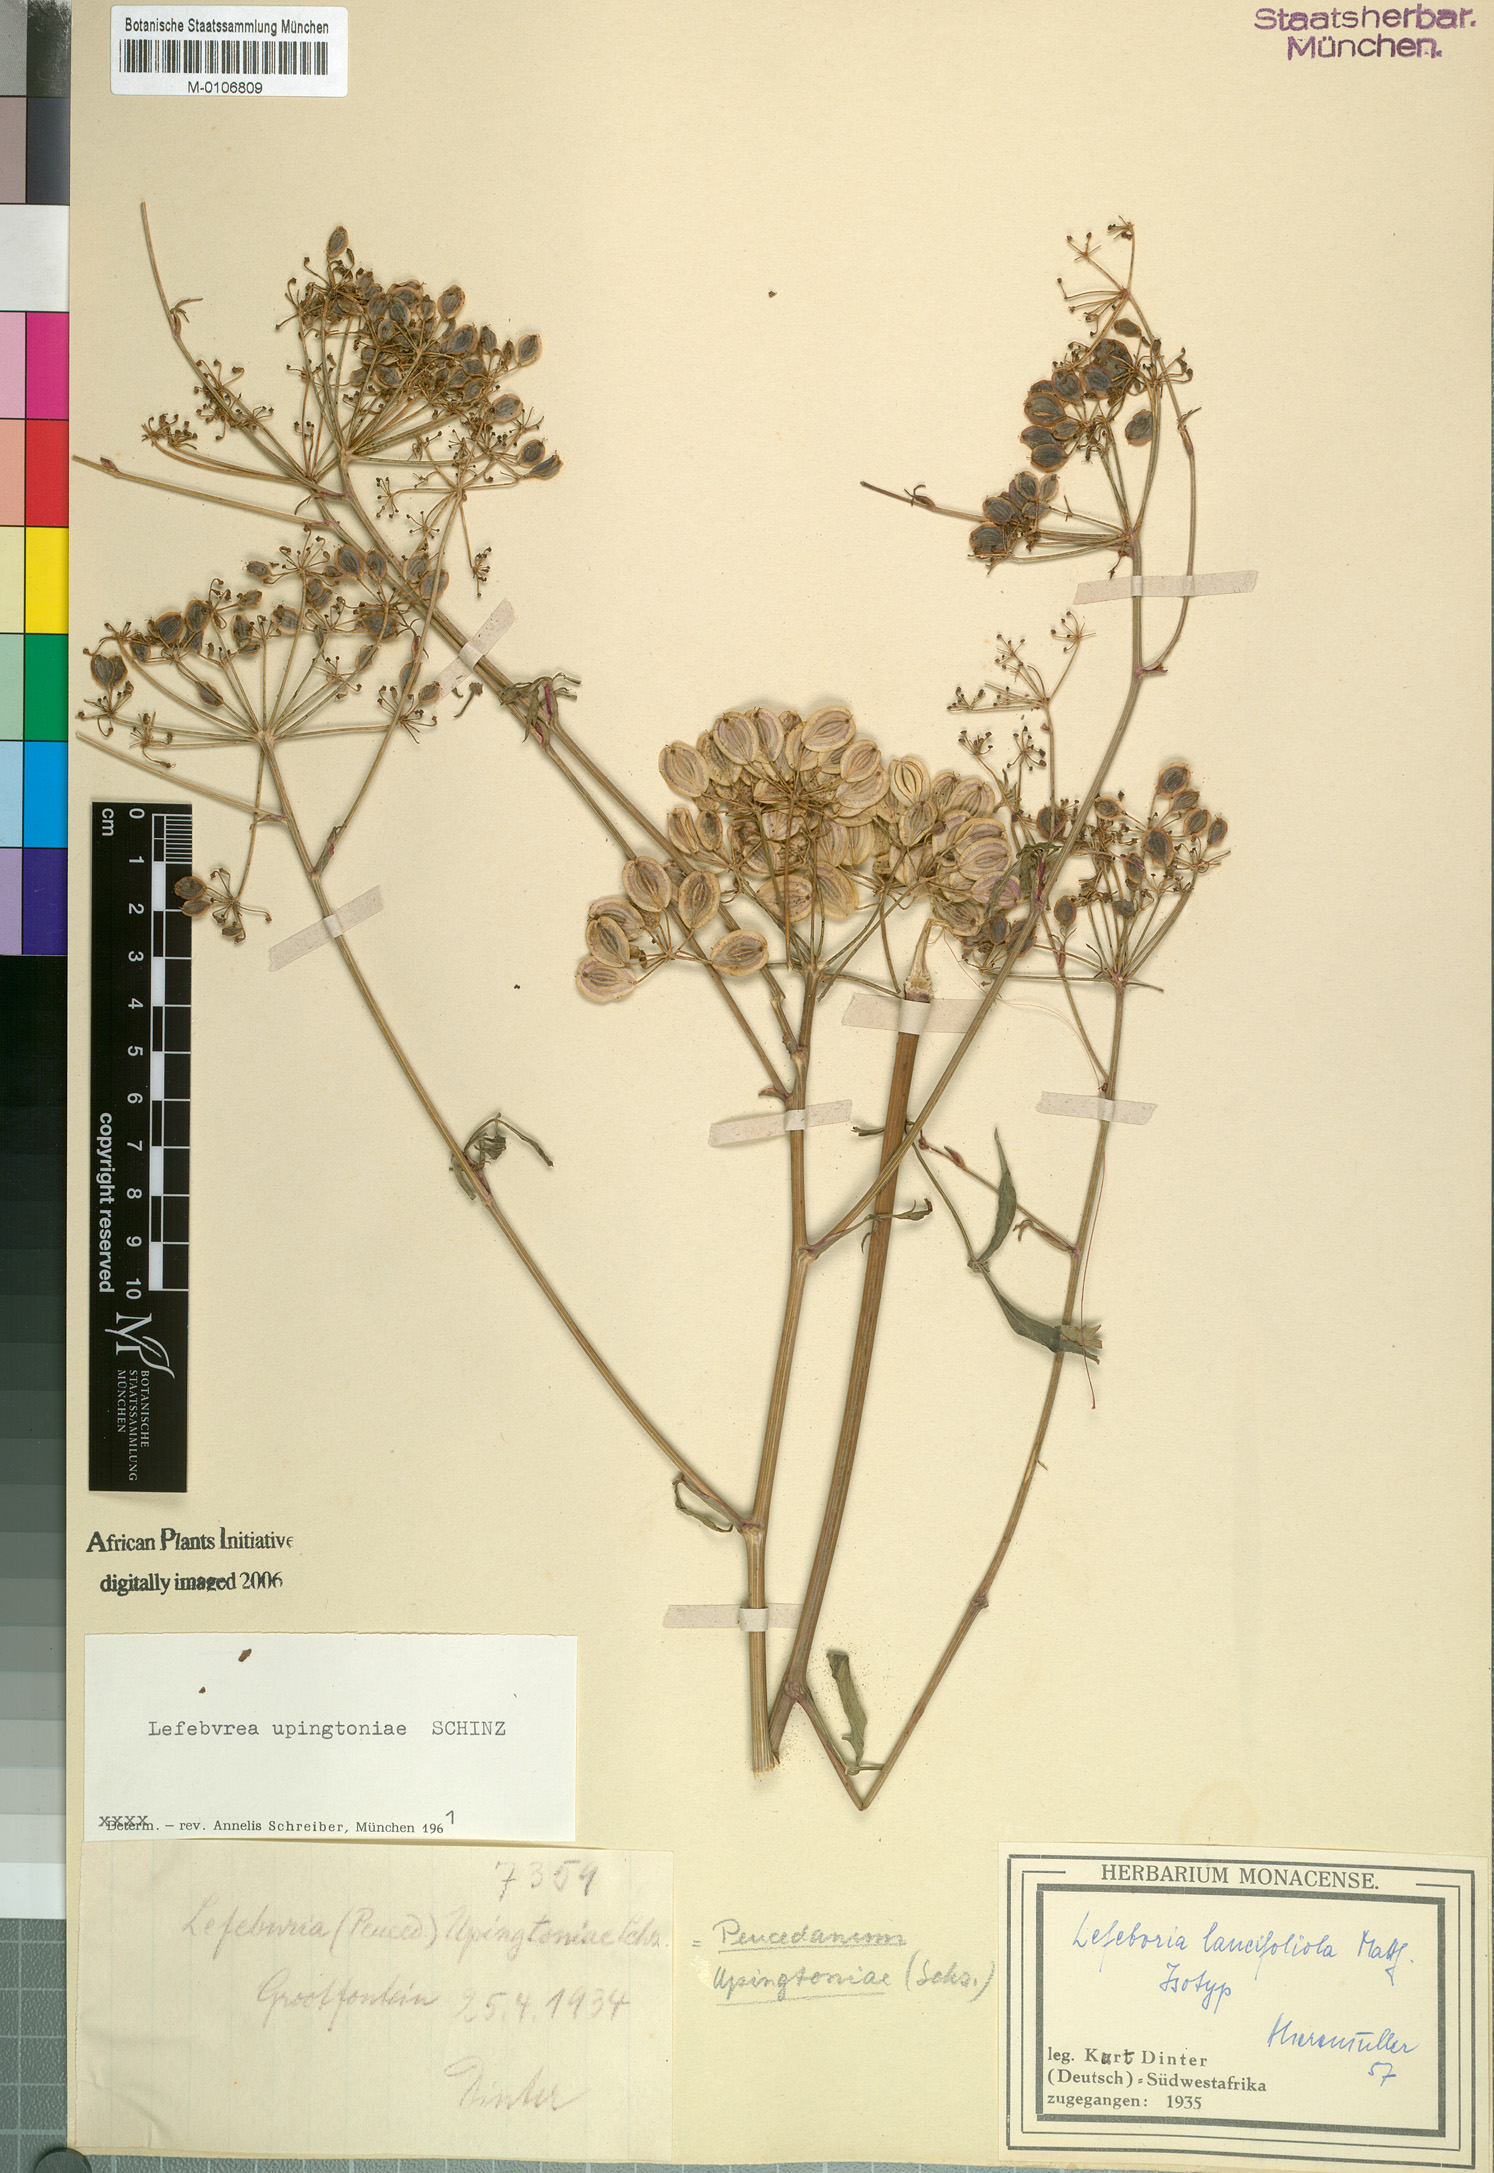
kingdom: Plantae
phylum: Tracheophyta
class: Magnoliopsida
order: Apiales
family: Apiaceae
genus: Lefebvrea
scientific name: Lefebvrea grantii
